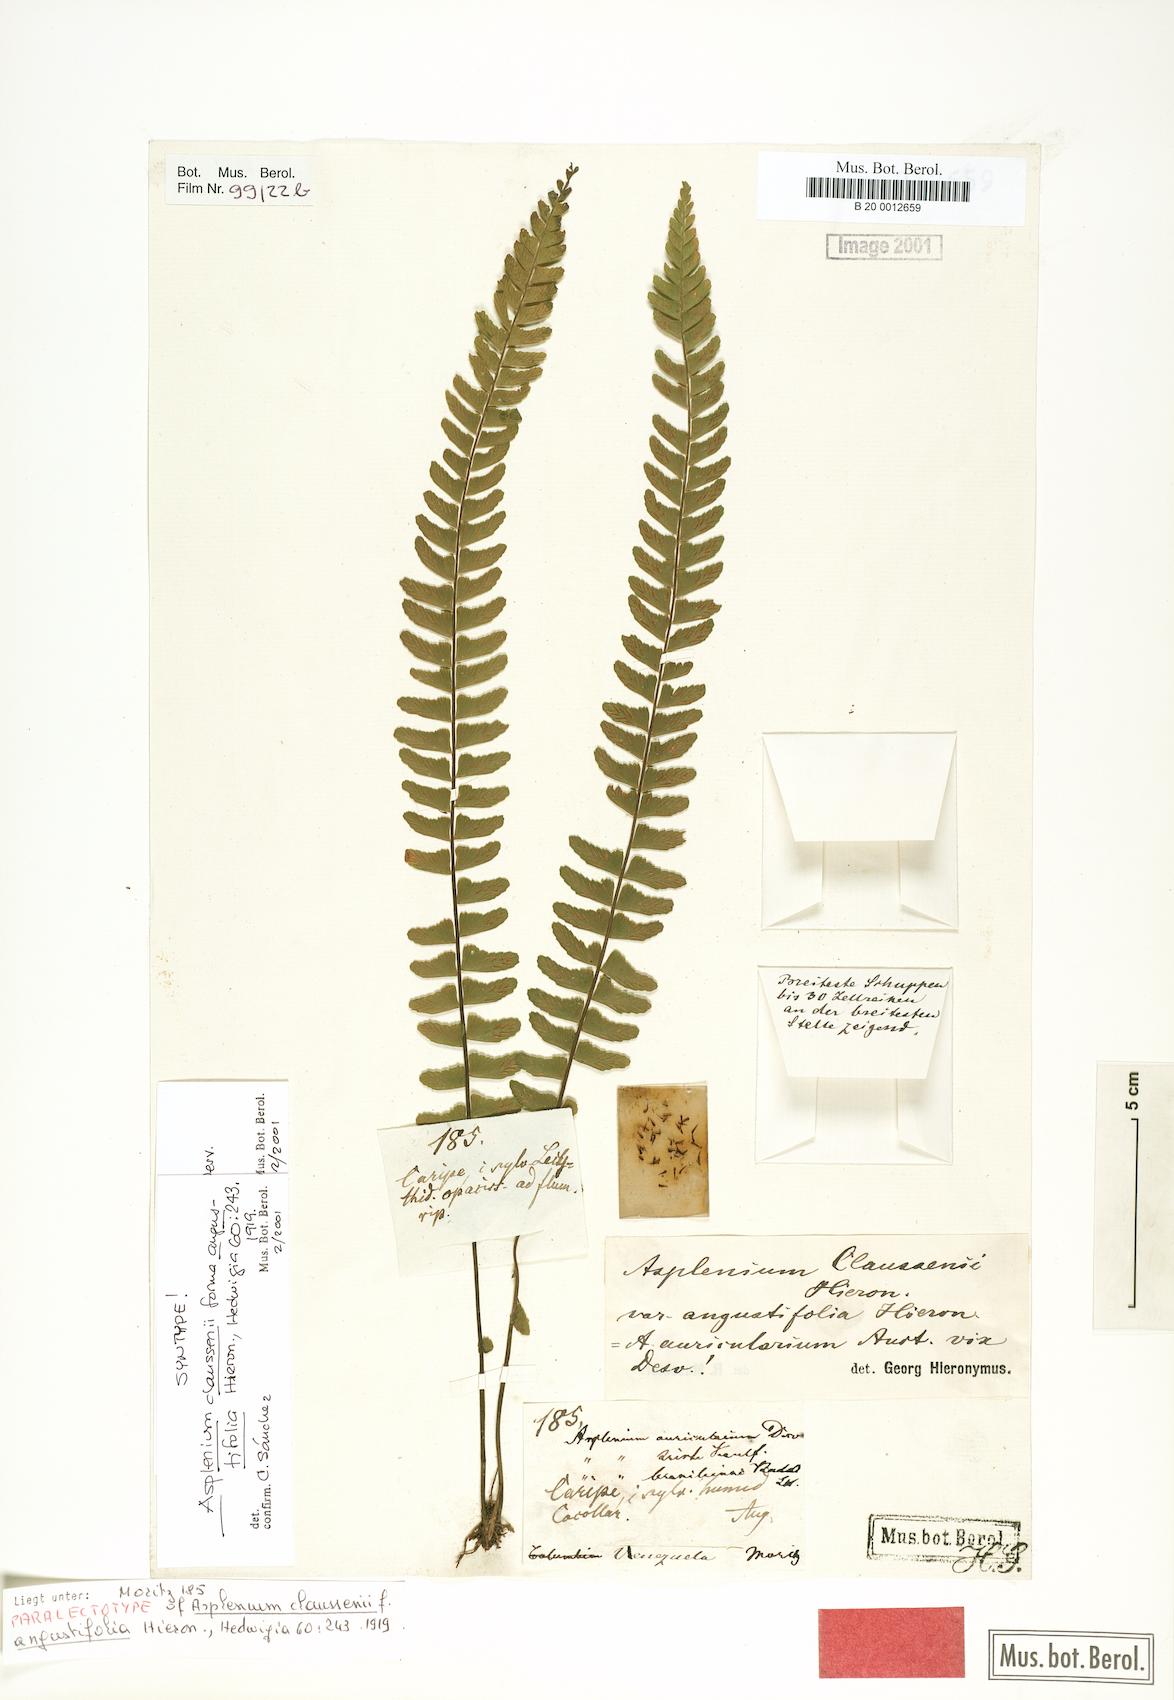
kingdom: Plantae
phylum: Tracheophyta
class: Polypodiopsida
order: Polypodiales
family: Aspleniaceae
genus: Asplenium
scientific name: Asplenium claussenii
